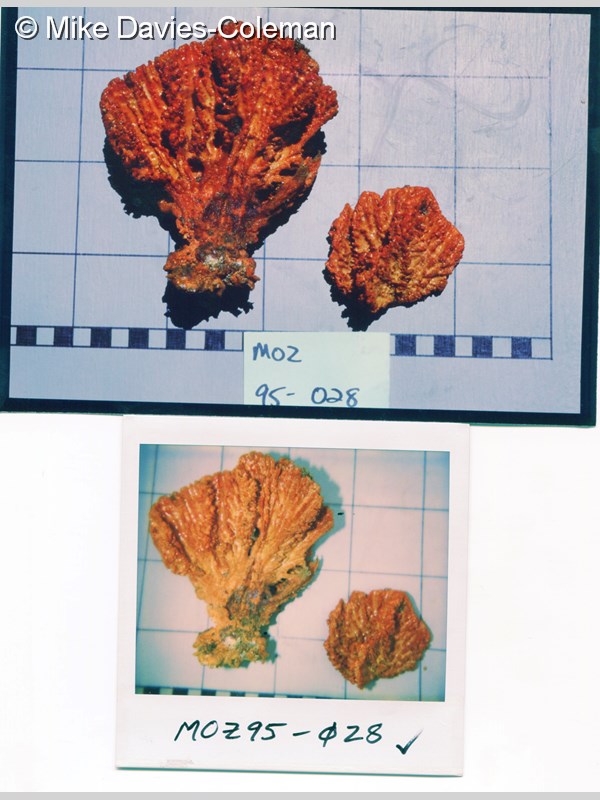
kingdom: Animalia
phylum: Porifera
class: Demospongiae
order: Axinellida
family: Axinellidae
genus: Axinella
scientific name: Axinella
